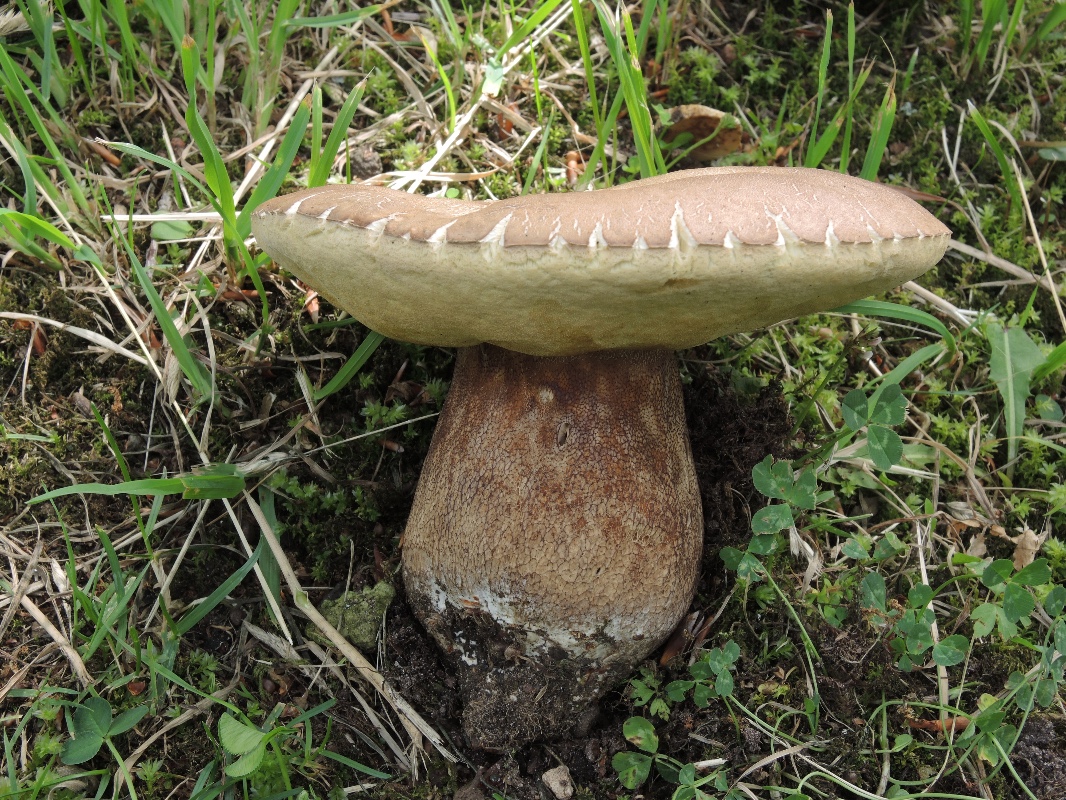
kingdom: Fungi
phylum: Basidiomycota
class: Agaricomycetes
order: Boletales
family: Boletaceae
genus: Boletus
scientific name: Boletus reticulatus
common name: sommer-rørhat
